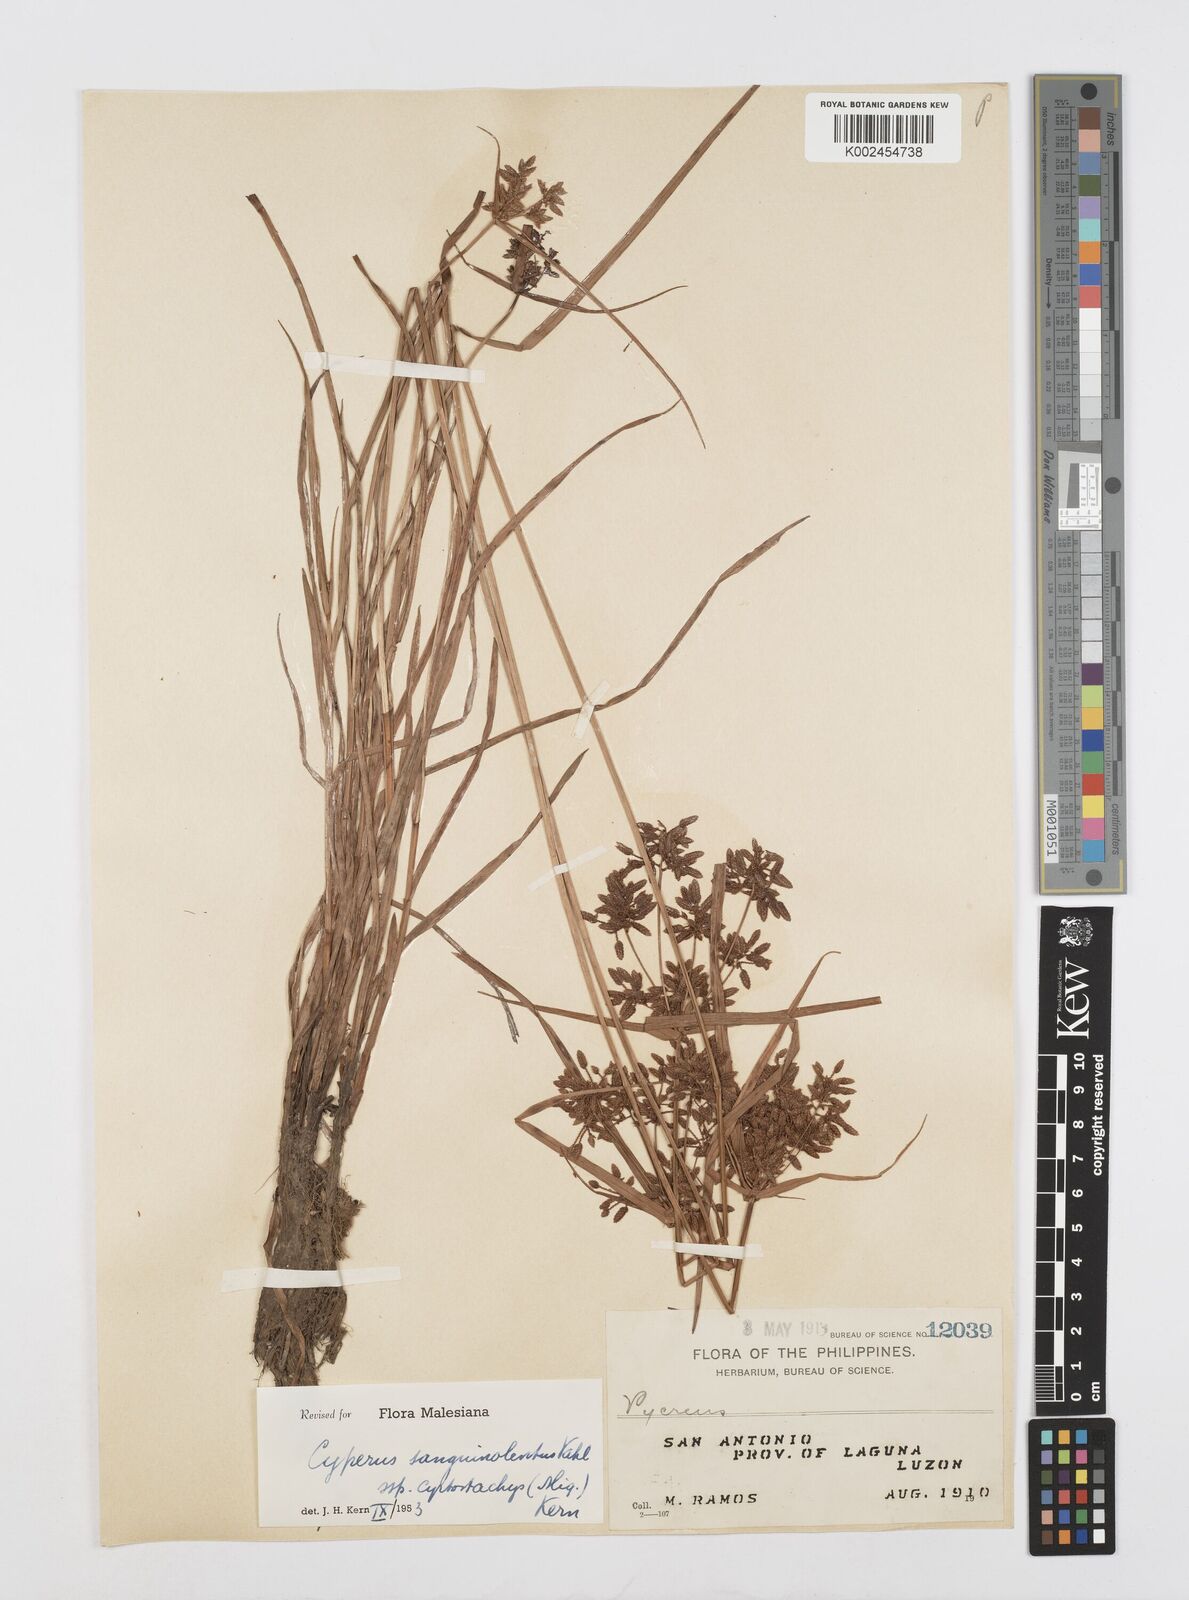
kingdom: Plantae
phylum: Tracheophyta
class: Liliopsida
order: Poales
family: Cyperaceae
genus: Cyperus
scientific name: Cyperus sanguinolentus
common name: Purpleglume flatsedge
